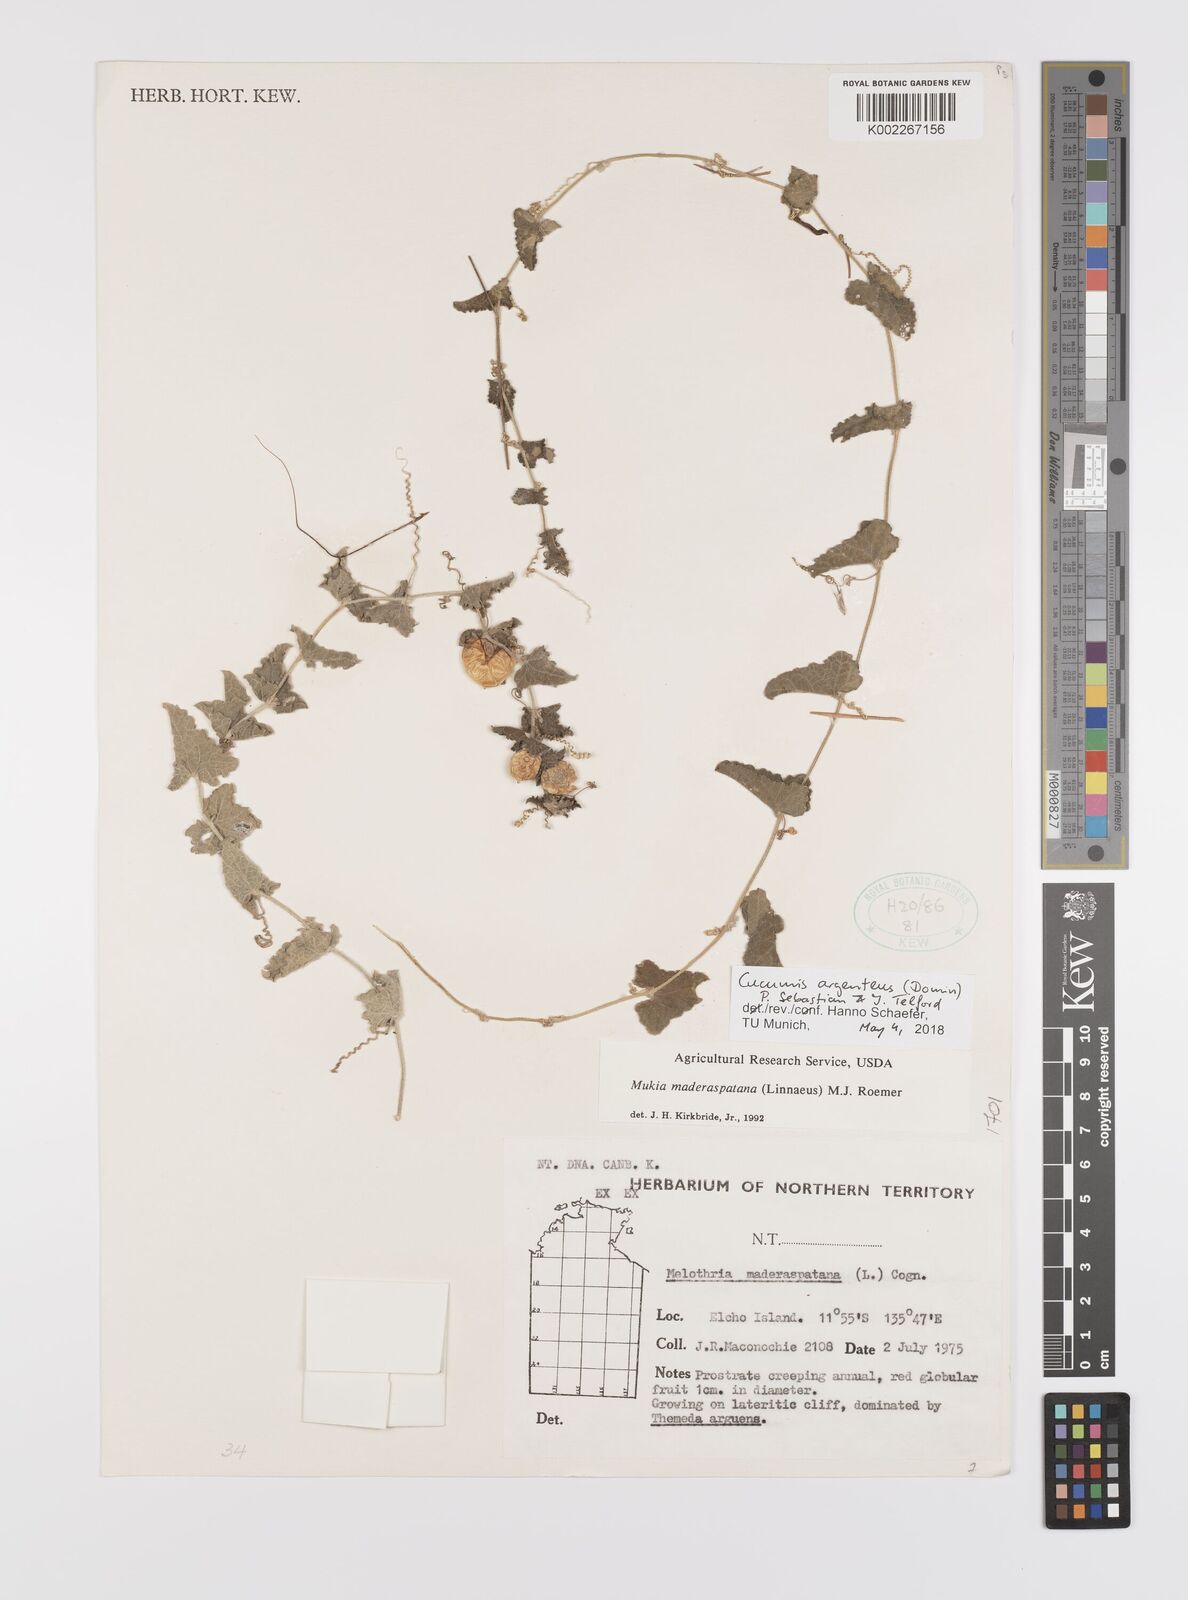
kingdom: Plantae
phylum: Tracheophyta
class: Magnoliopsida
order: Cucurbitales
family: Cucurbitaceae
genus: Cucumis
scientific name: Cucumis argenteus
